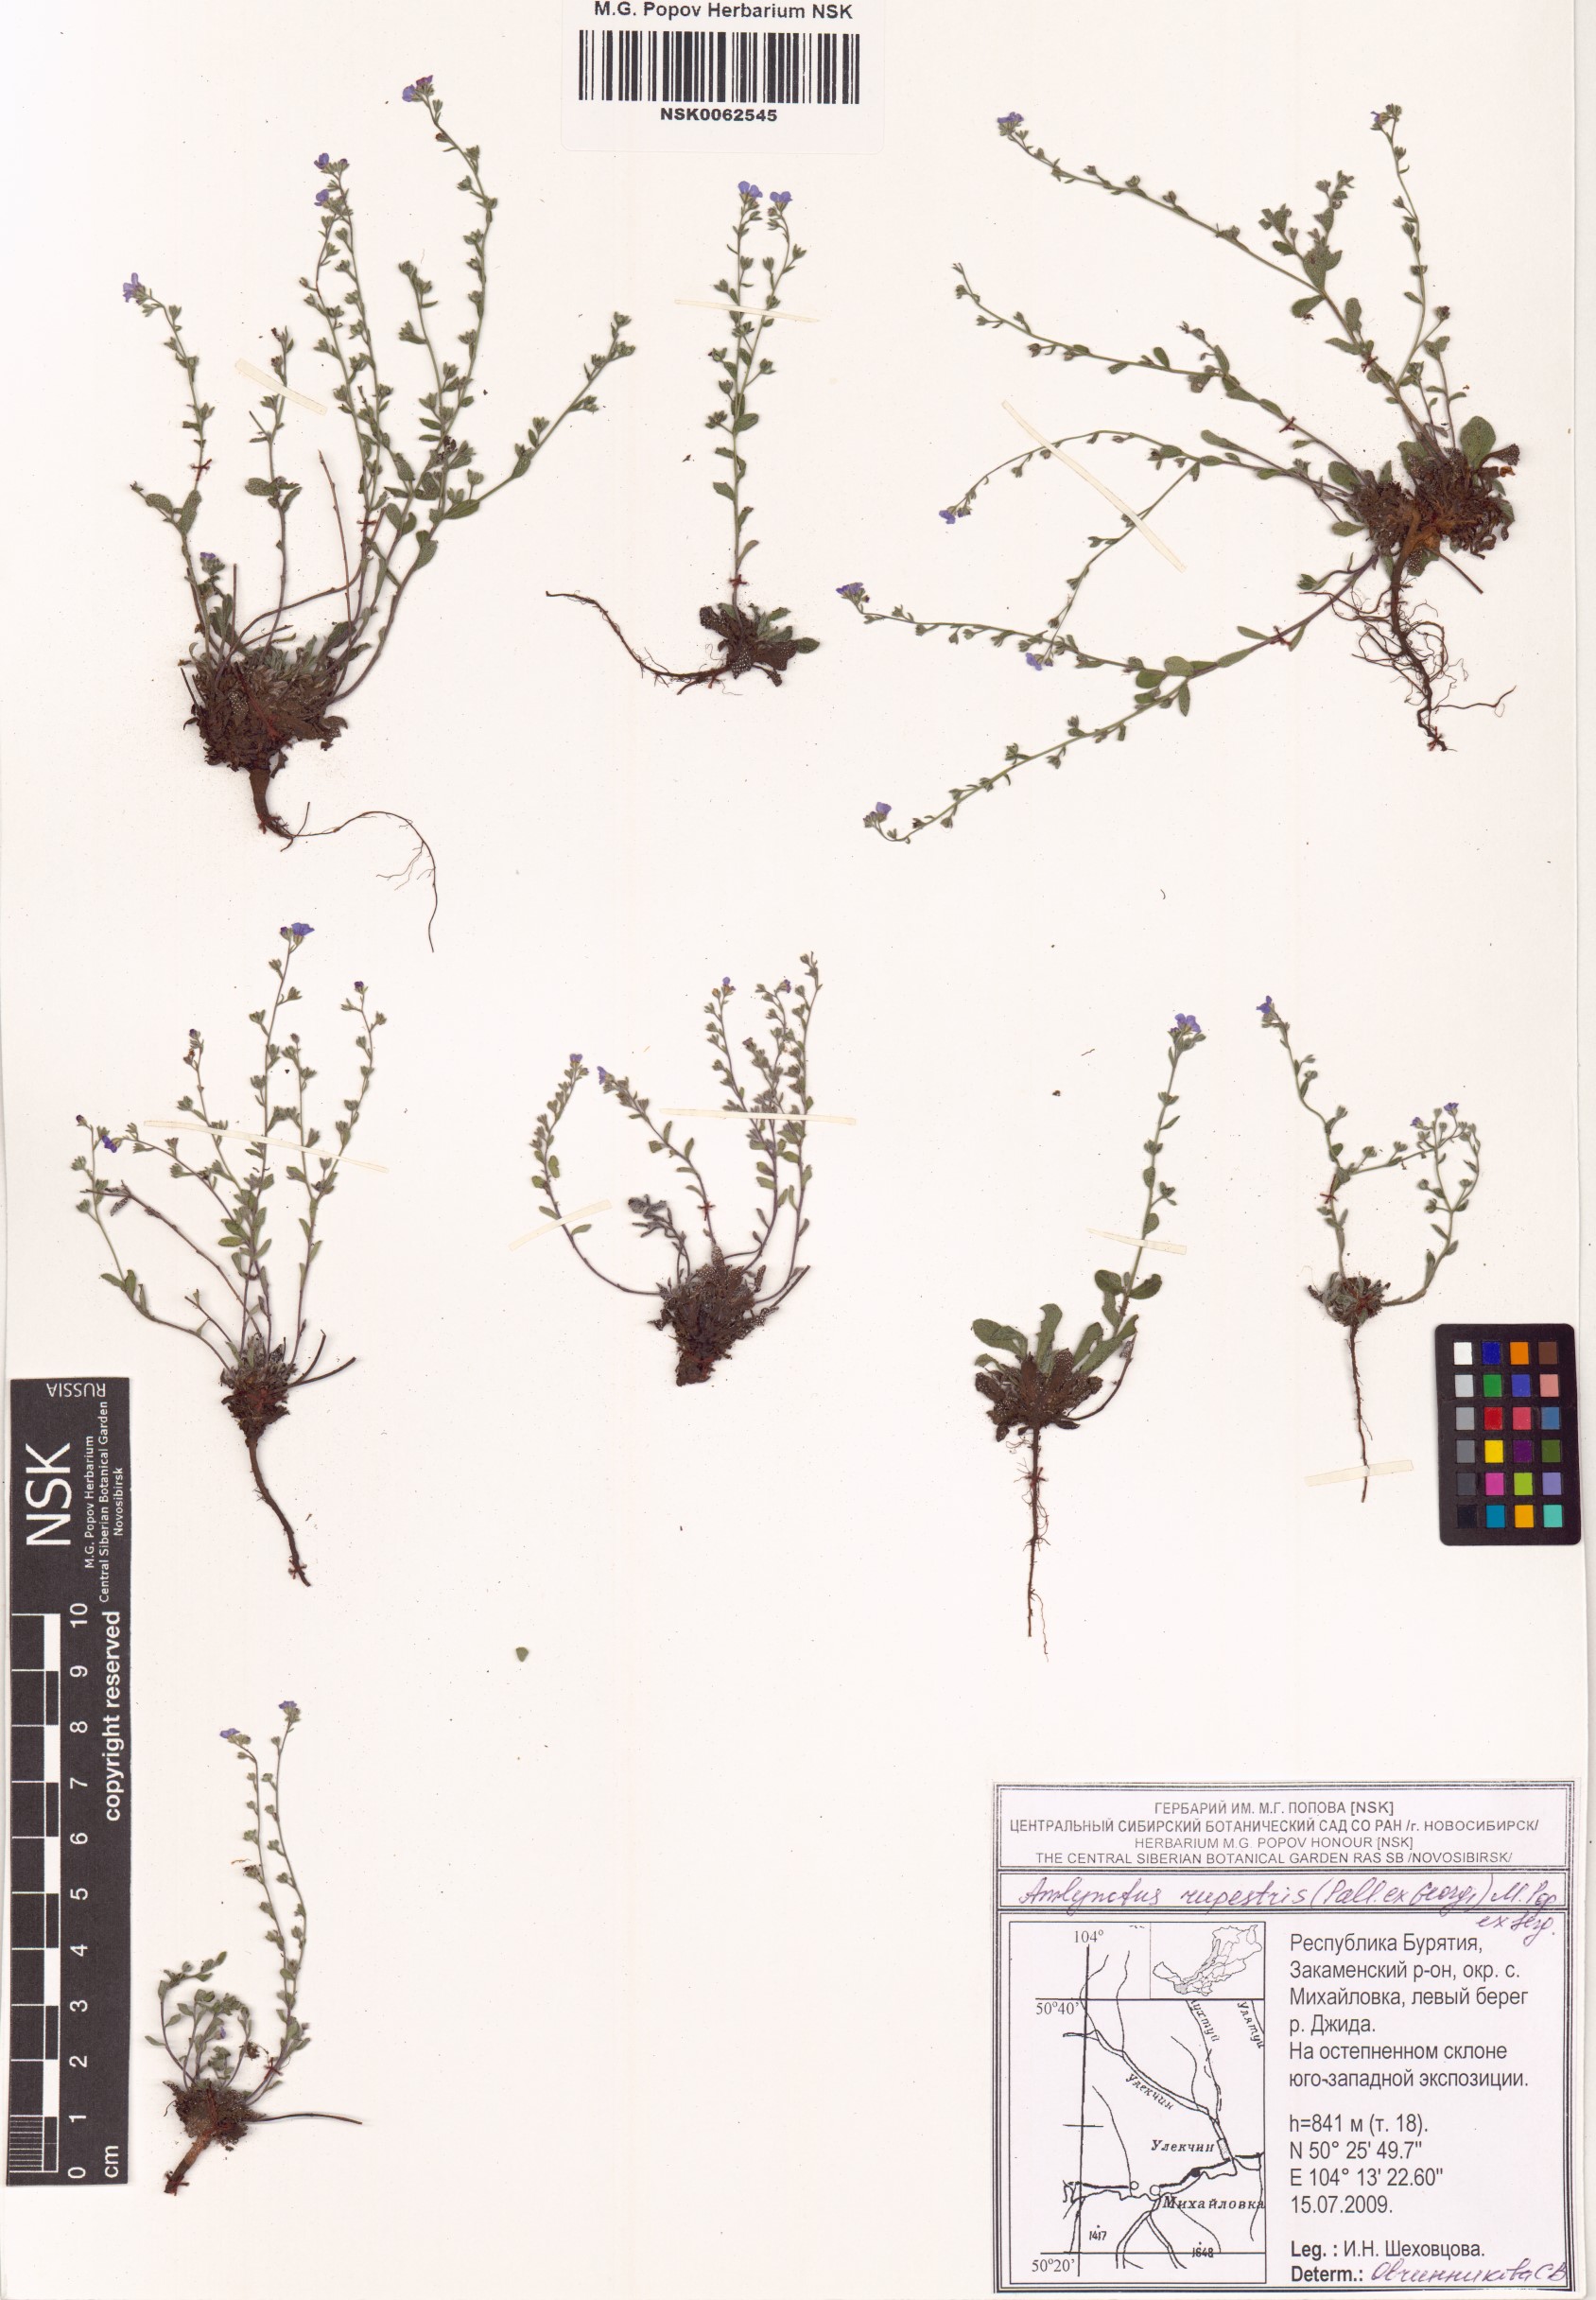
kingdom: Plantae
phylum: Tracheophyta
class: Magnoliopsida
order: Boraginales
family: Boraginaceae
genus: Eritrichium
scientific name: Eritrichium rupestre
